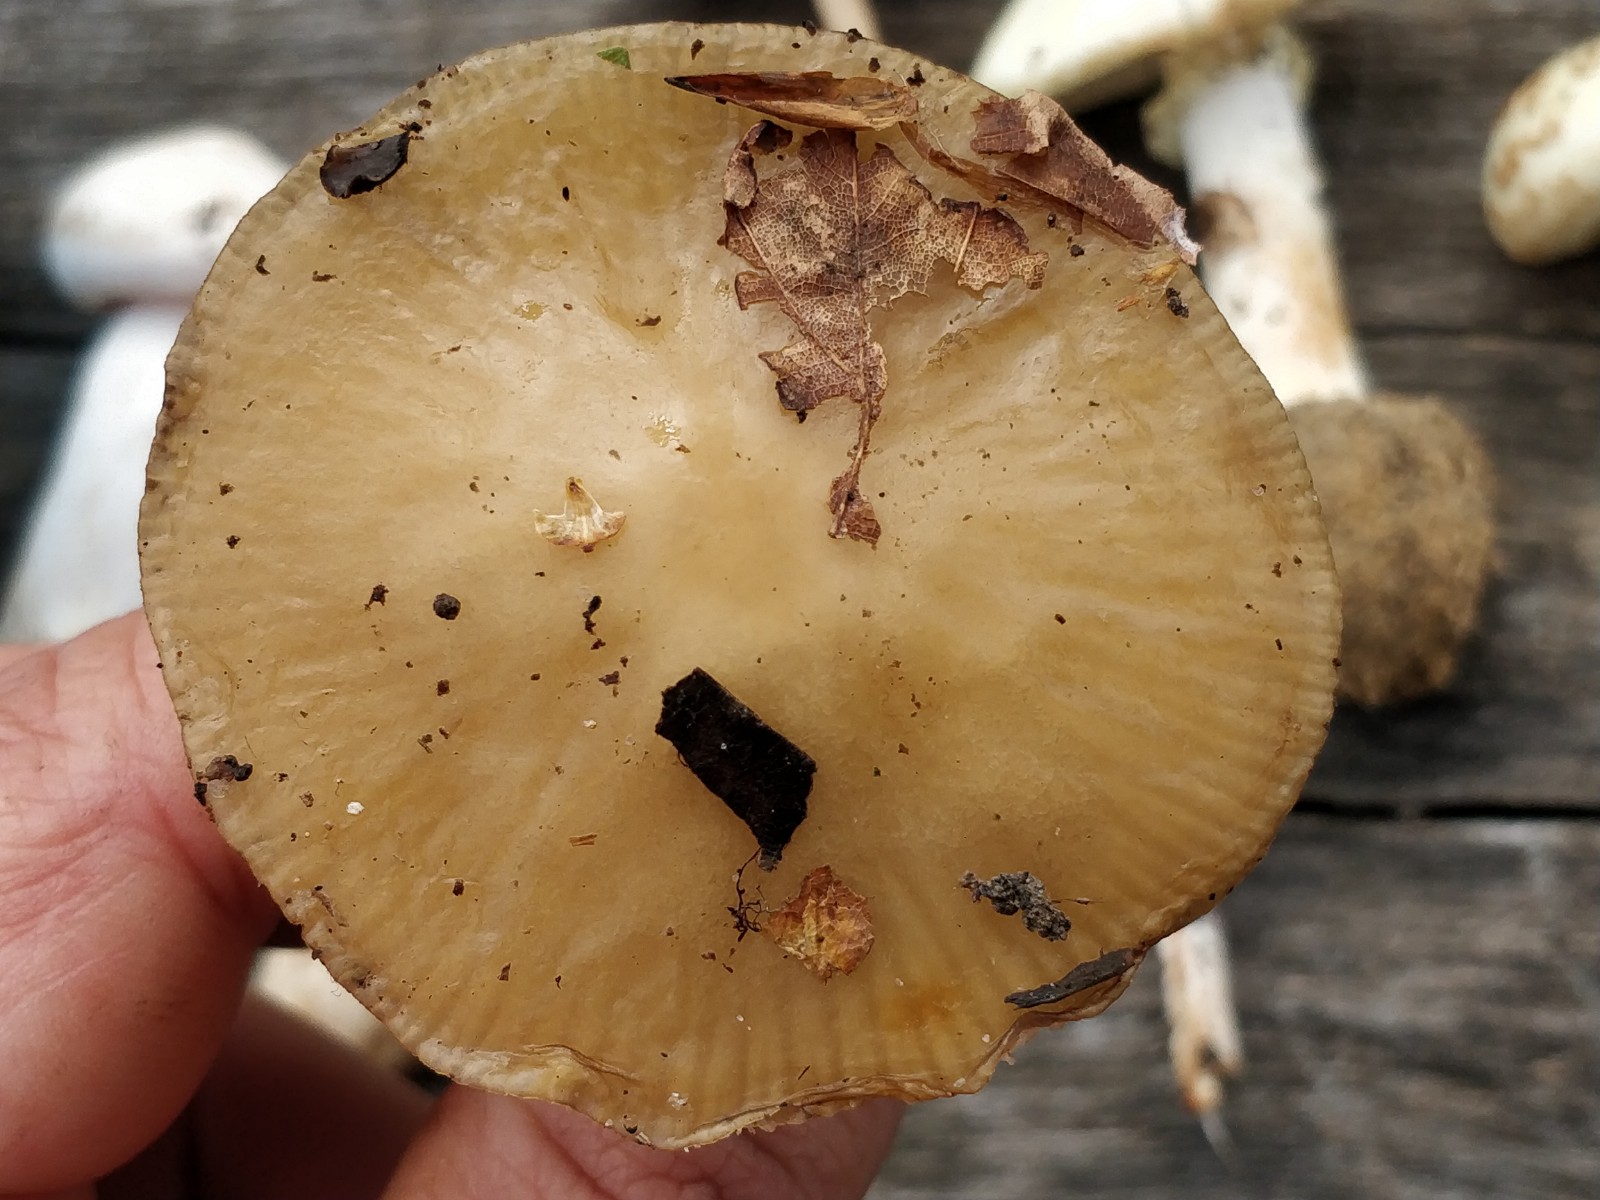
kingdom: Fungi
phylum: Basidiomycota
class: Agaricomycetes
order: Agaricales
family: Physalacriaceae
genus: Hymenopellis
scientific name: Hymenopellis radicata
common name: almindelig pælerodshat
